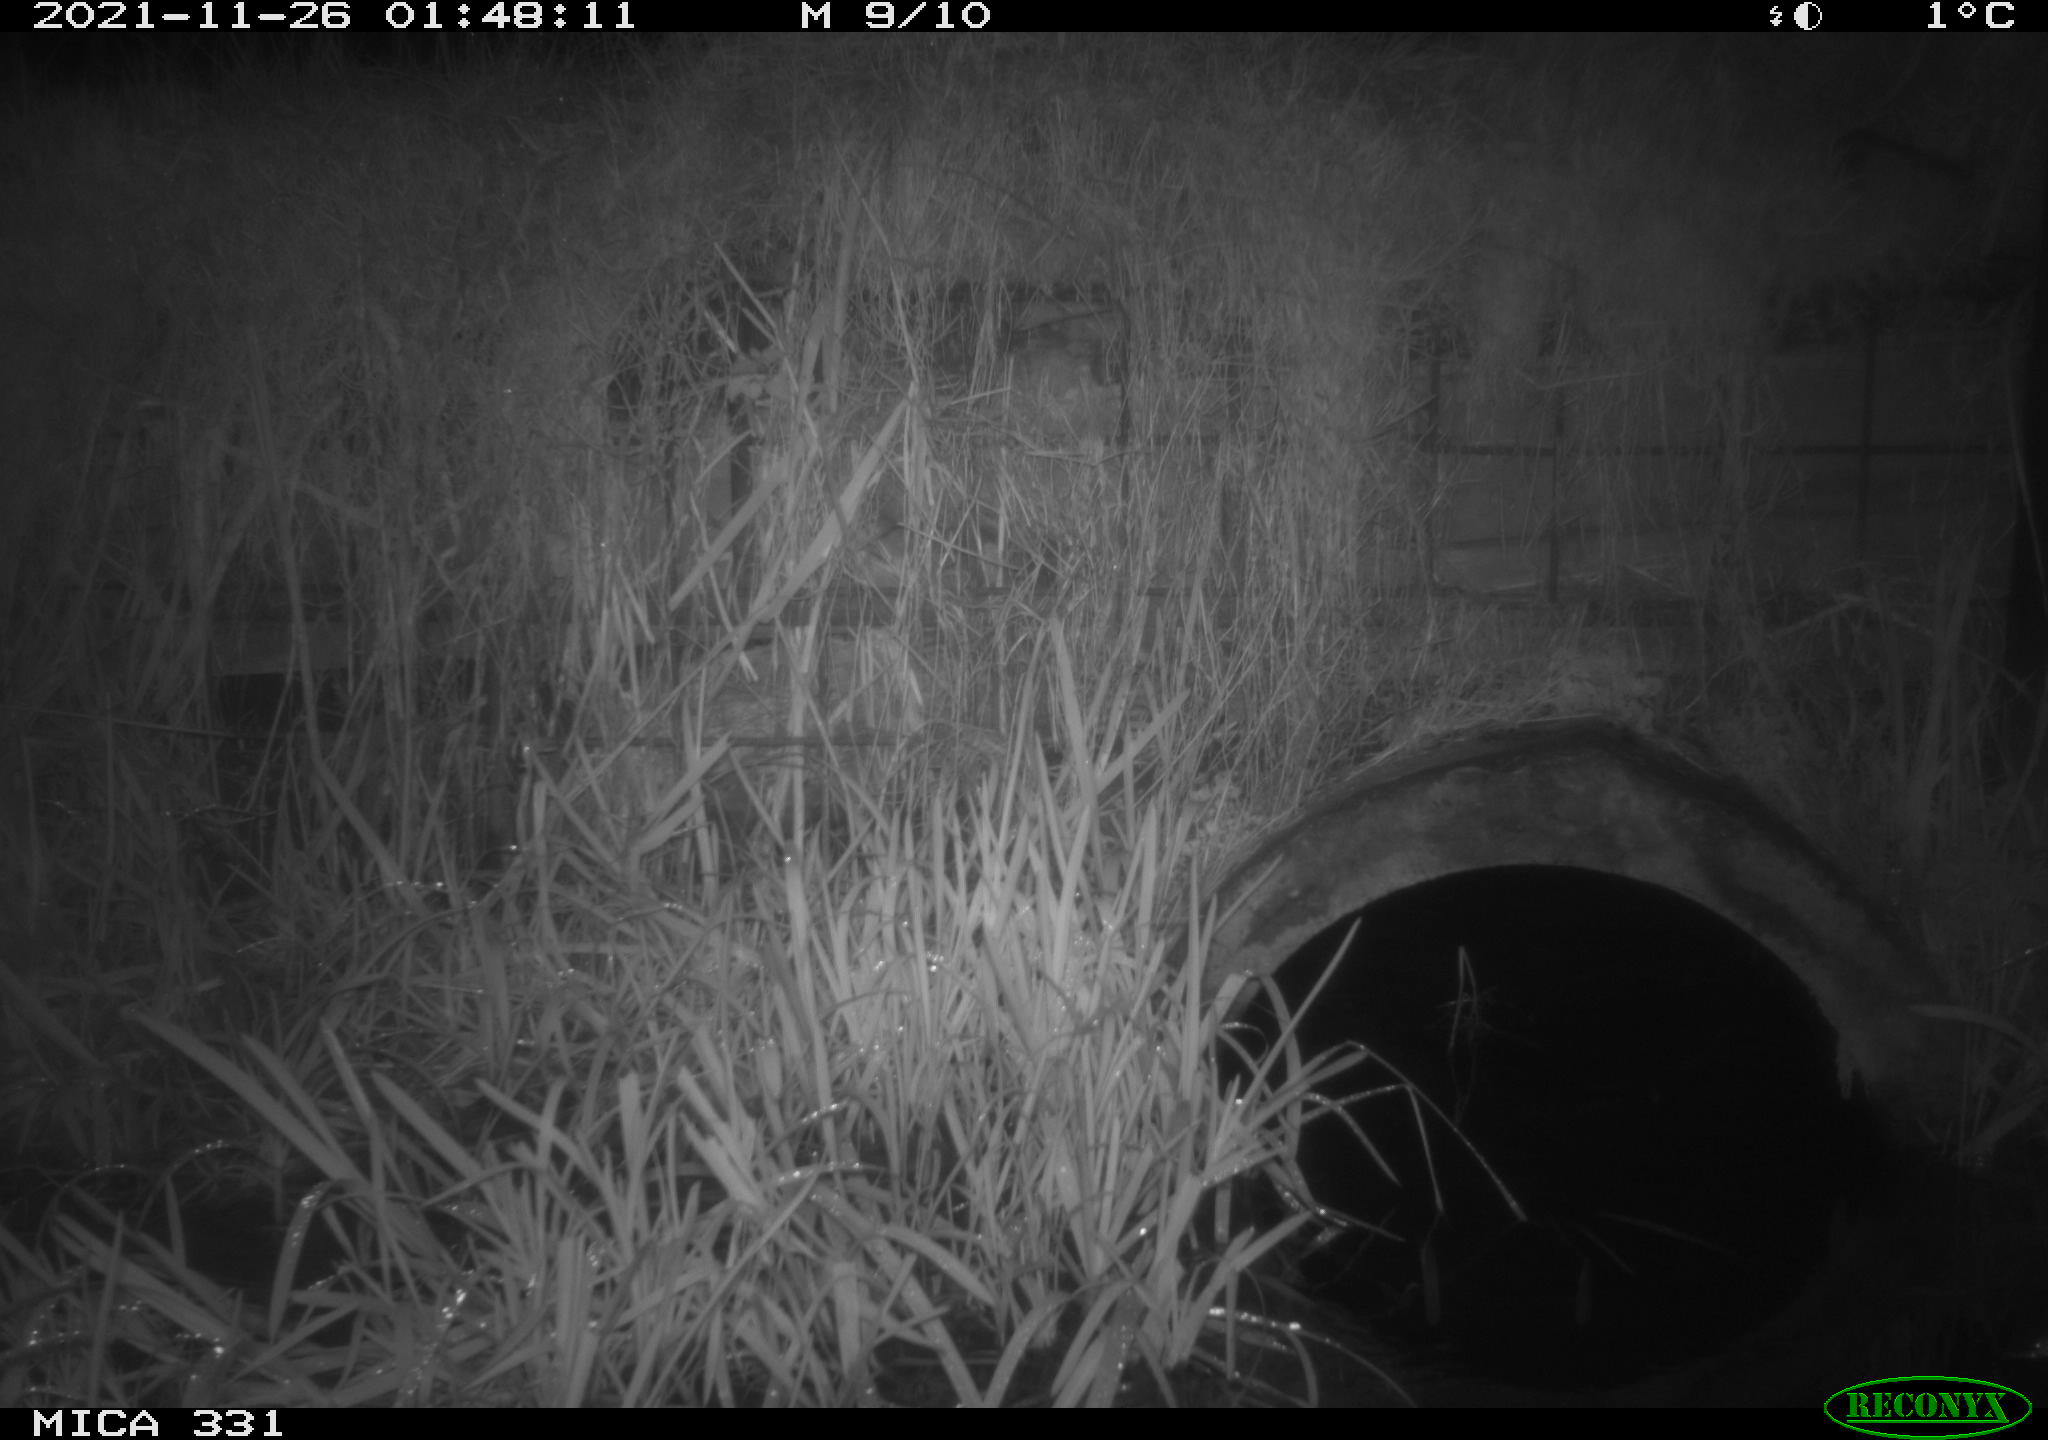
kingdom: Animalia
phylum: Chordata
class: Mammalia
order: Rodentia
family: Muridae
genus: Rattus
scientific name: Rattus norvegicus
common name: Brown rat
